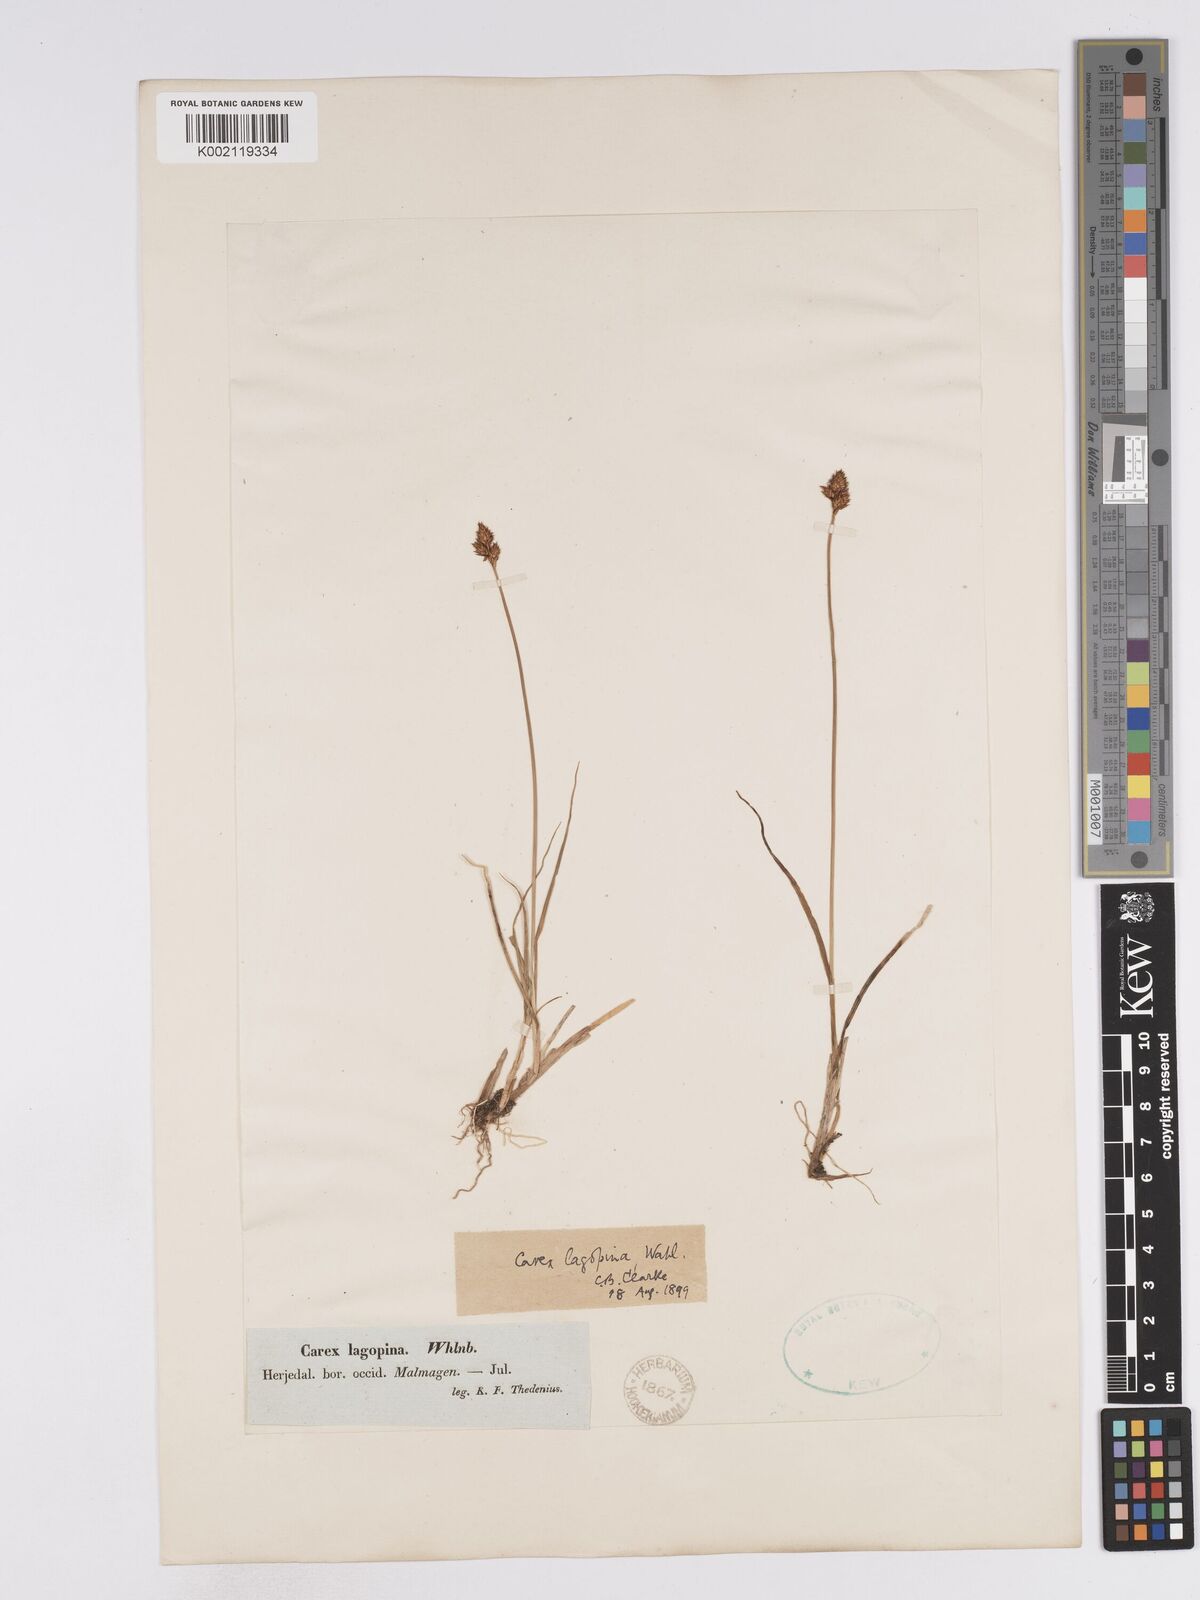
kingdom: Plantae
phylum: Tracheophyta
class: Liliopsida
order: Poales
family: Cyperaceae
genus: Carex
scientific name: Carex lachenalii
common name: Hare's-foot sedge
